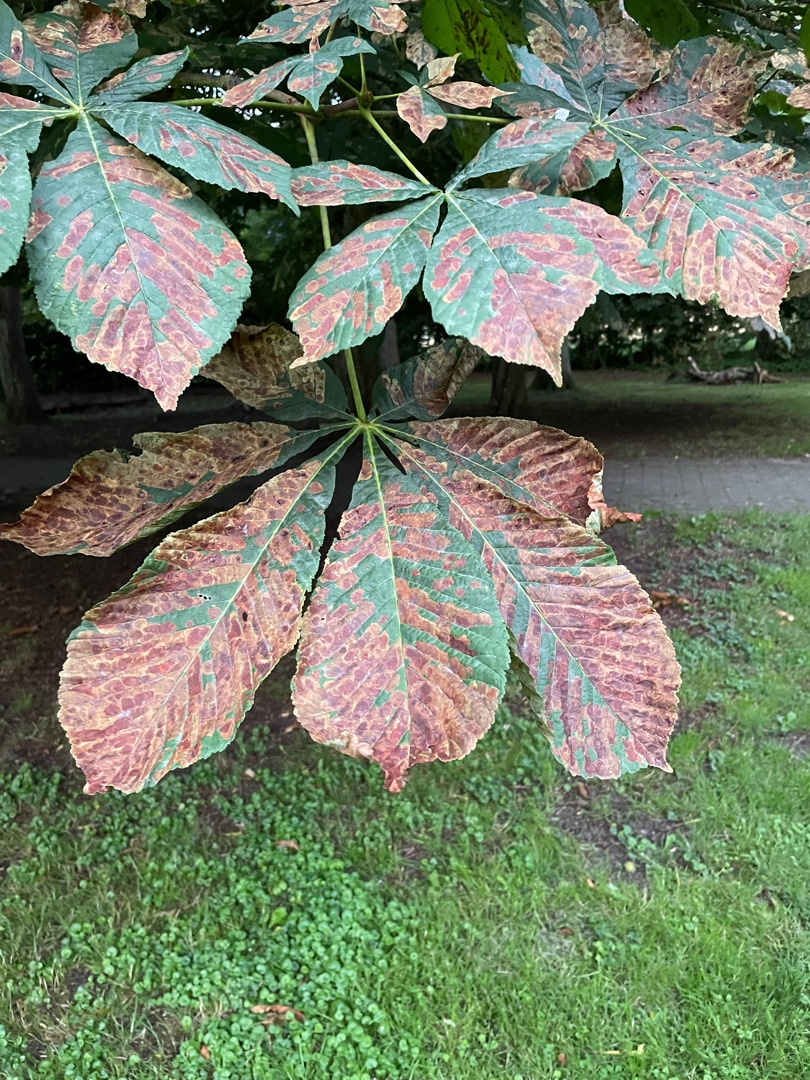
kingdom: Animalia
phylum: Arthropoda
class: Insecta
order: Lepidoptera
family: Gracillariidae
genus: Cameraria
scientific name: Cameraria ohridella
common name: Kastanieminérmøl
